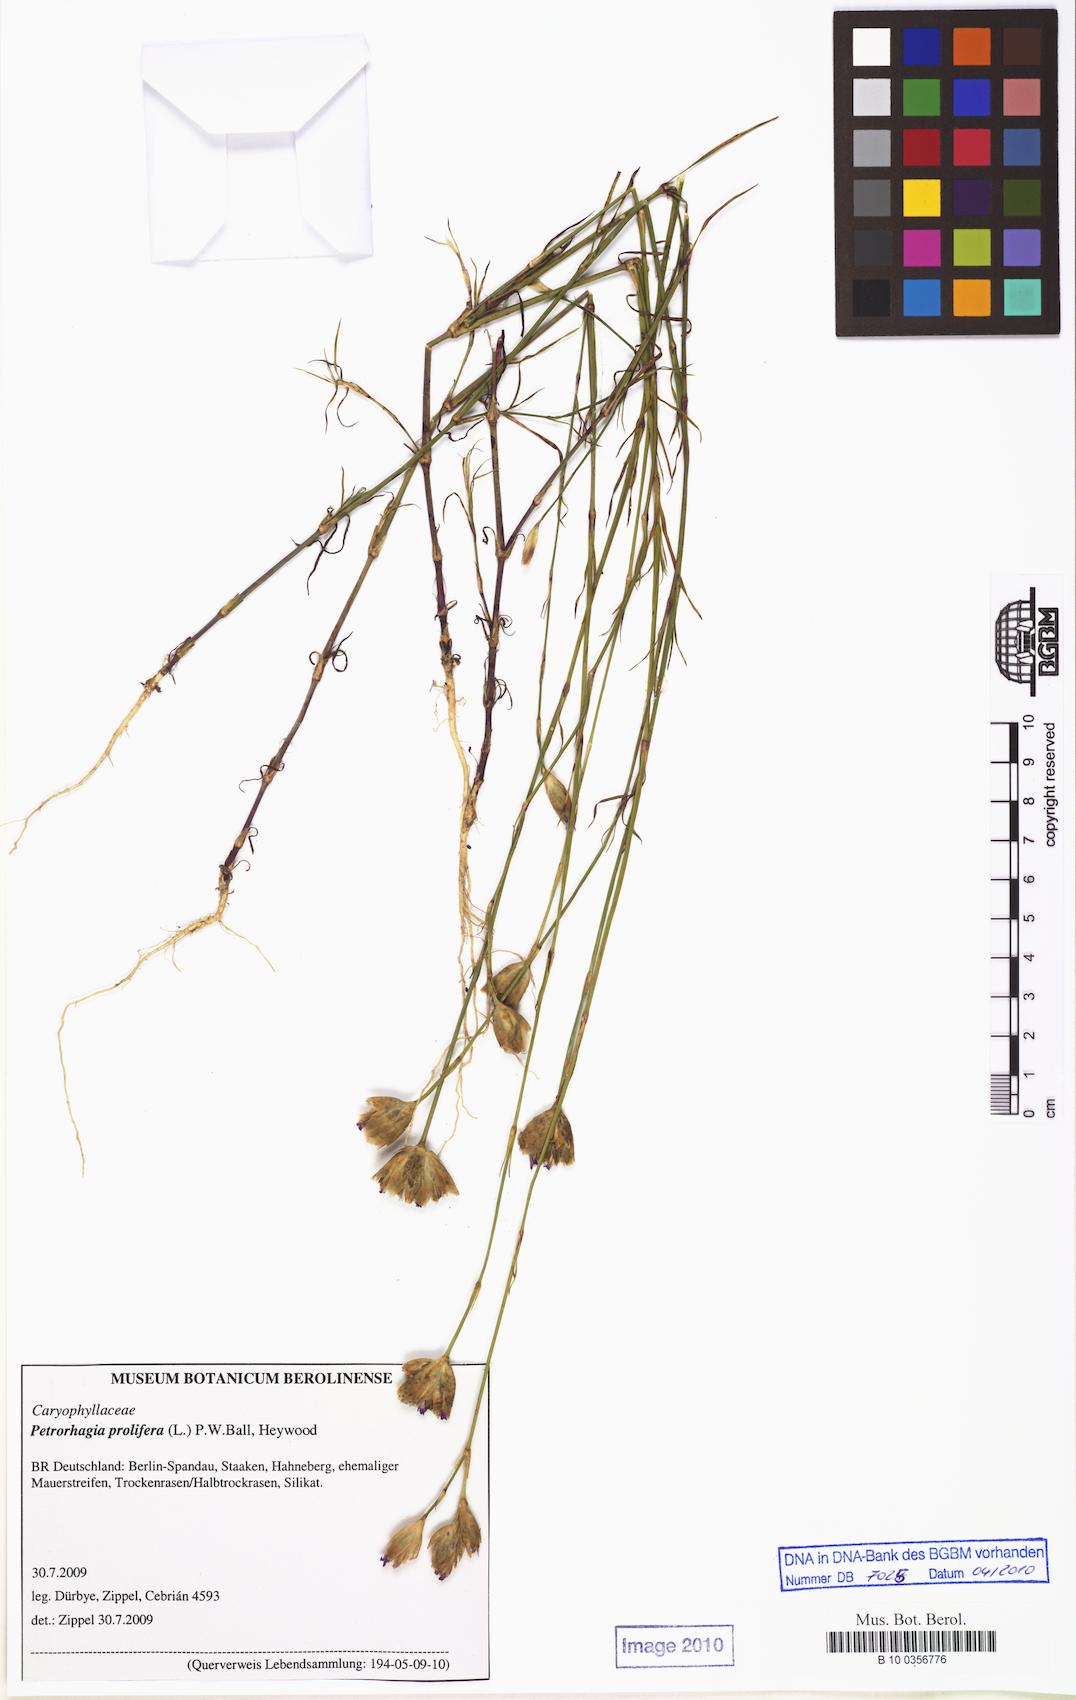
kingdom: Plantae
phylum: Tracheophyta
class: Magnoliopsida
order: Caryophyllales
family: Caryophyllaceae
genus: Petrorhagia
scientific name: Petrorhagia prolifera
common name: Proliferous pink
